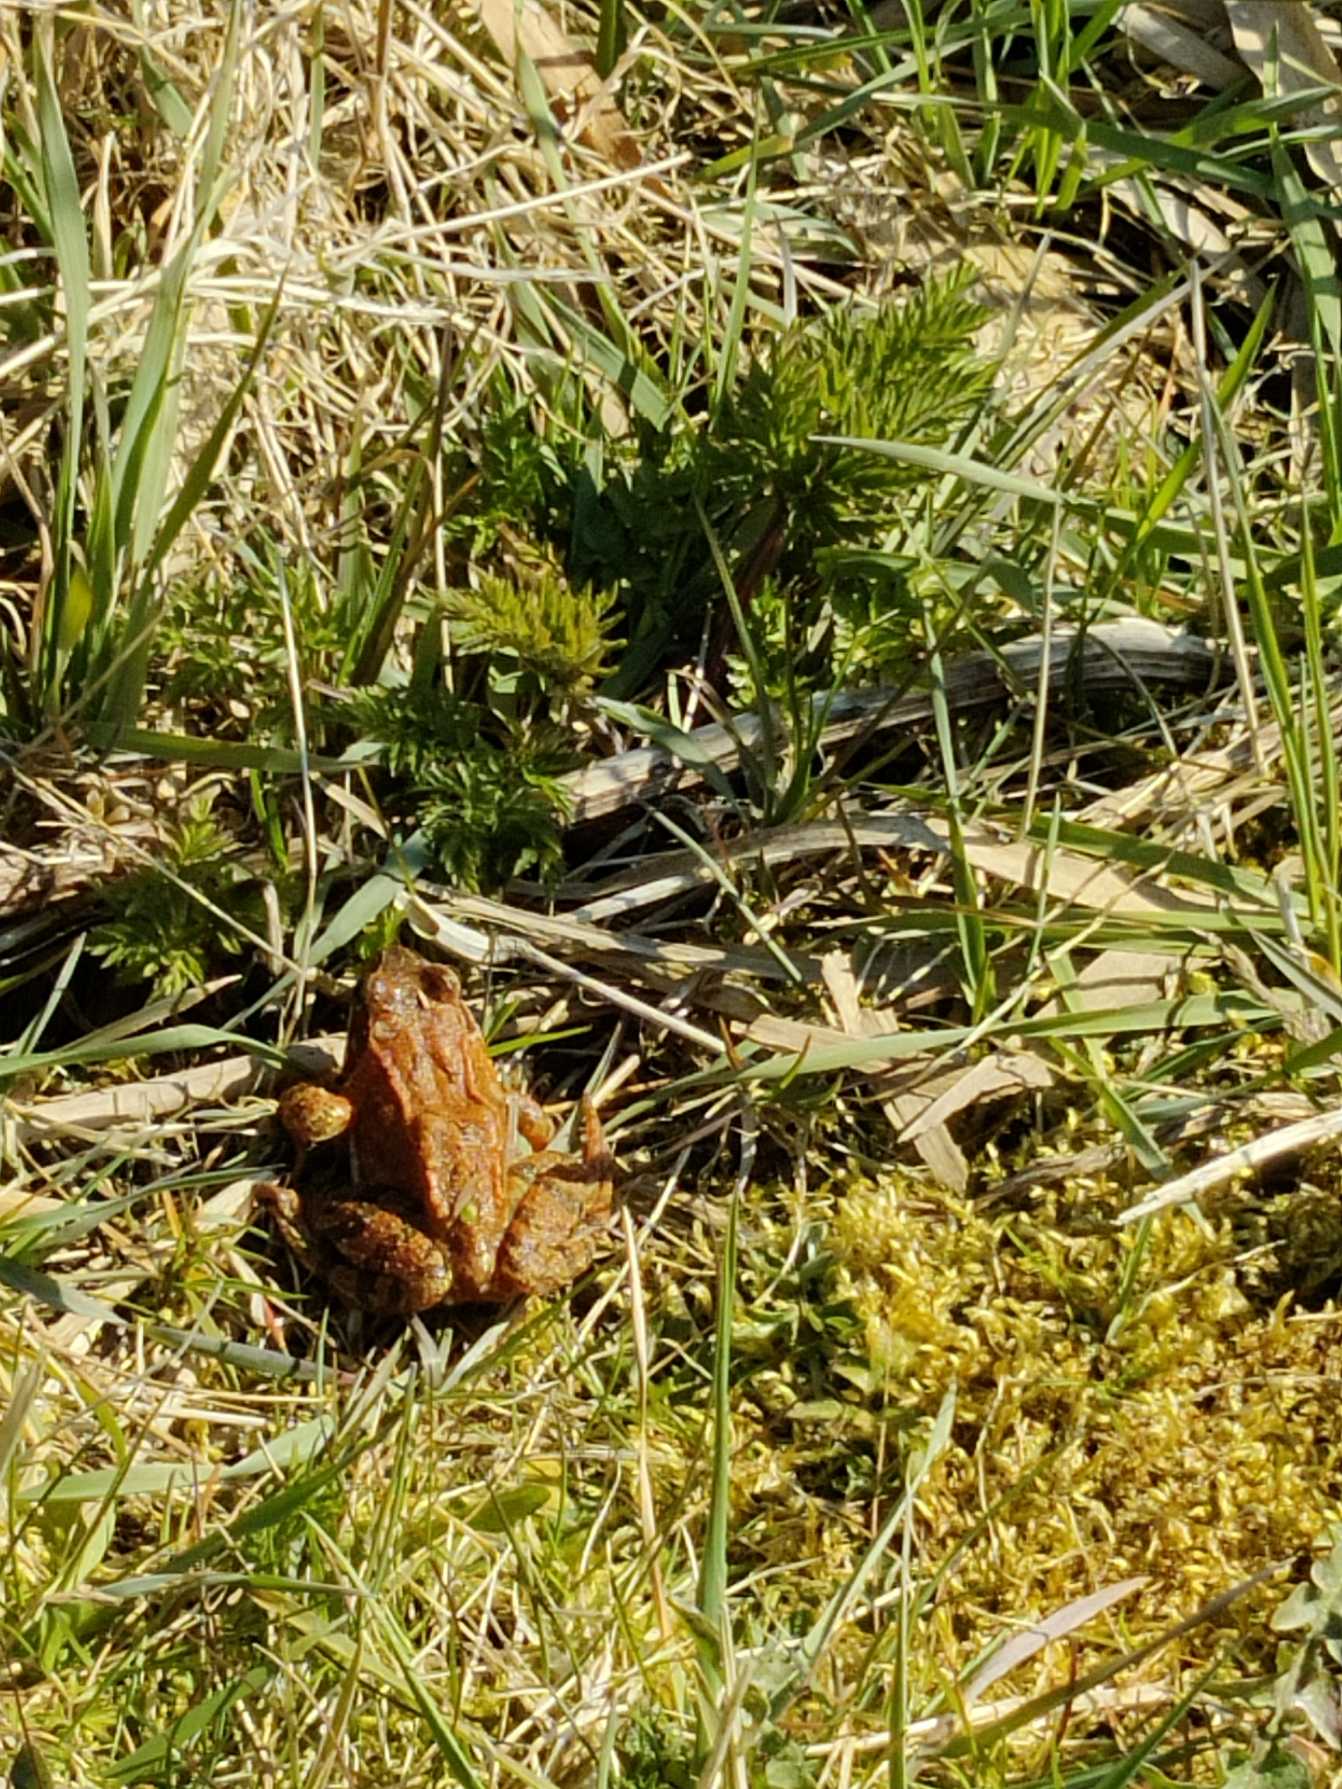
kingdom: Animalia
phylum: Chordata
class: Amphibia
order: Anura
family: Ranidae
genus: Rana
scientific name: Rana temporaria
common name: Butsnudet frø
